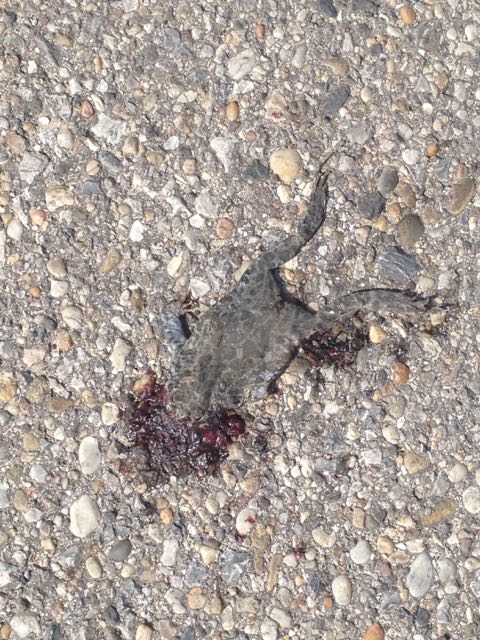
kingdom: Animalia
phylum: Chordata
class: Amphibia
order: Anura
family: Bufonidae
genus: Bufotes
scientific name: Bufotes viridis
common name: European green toad
